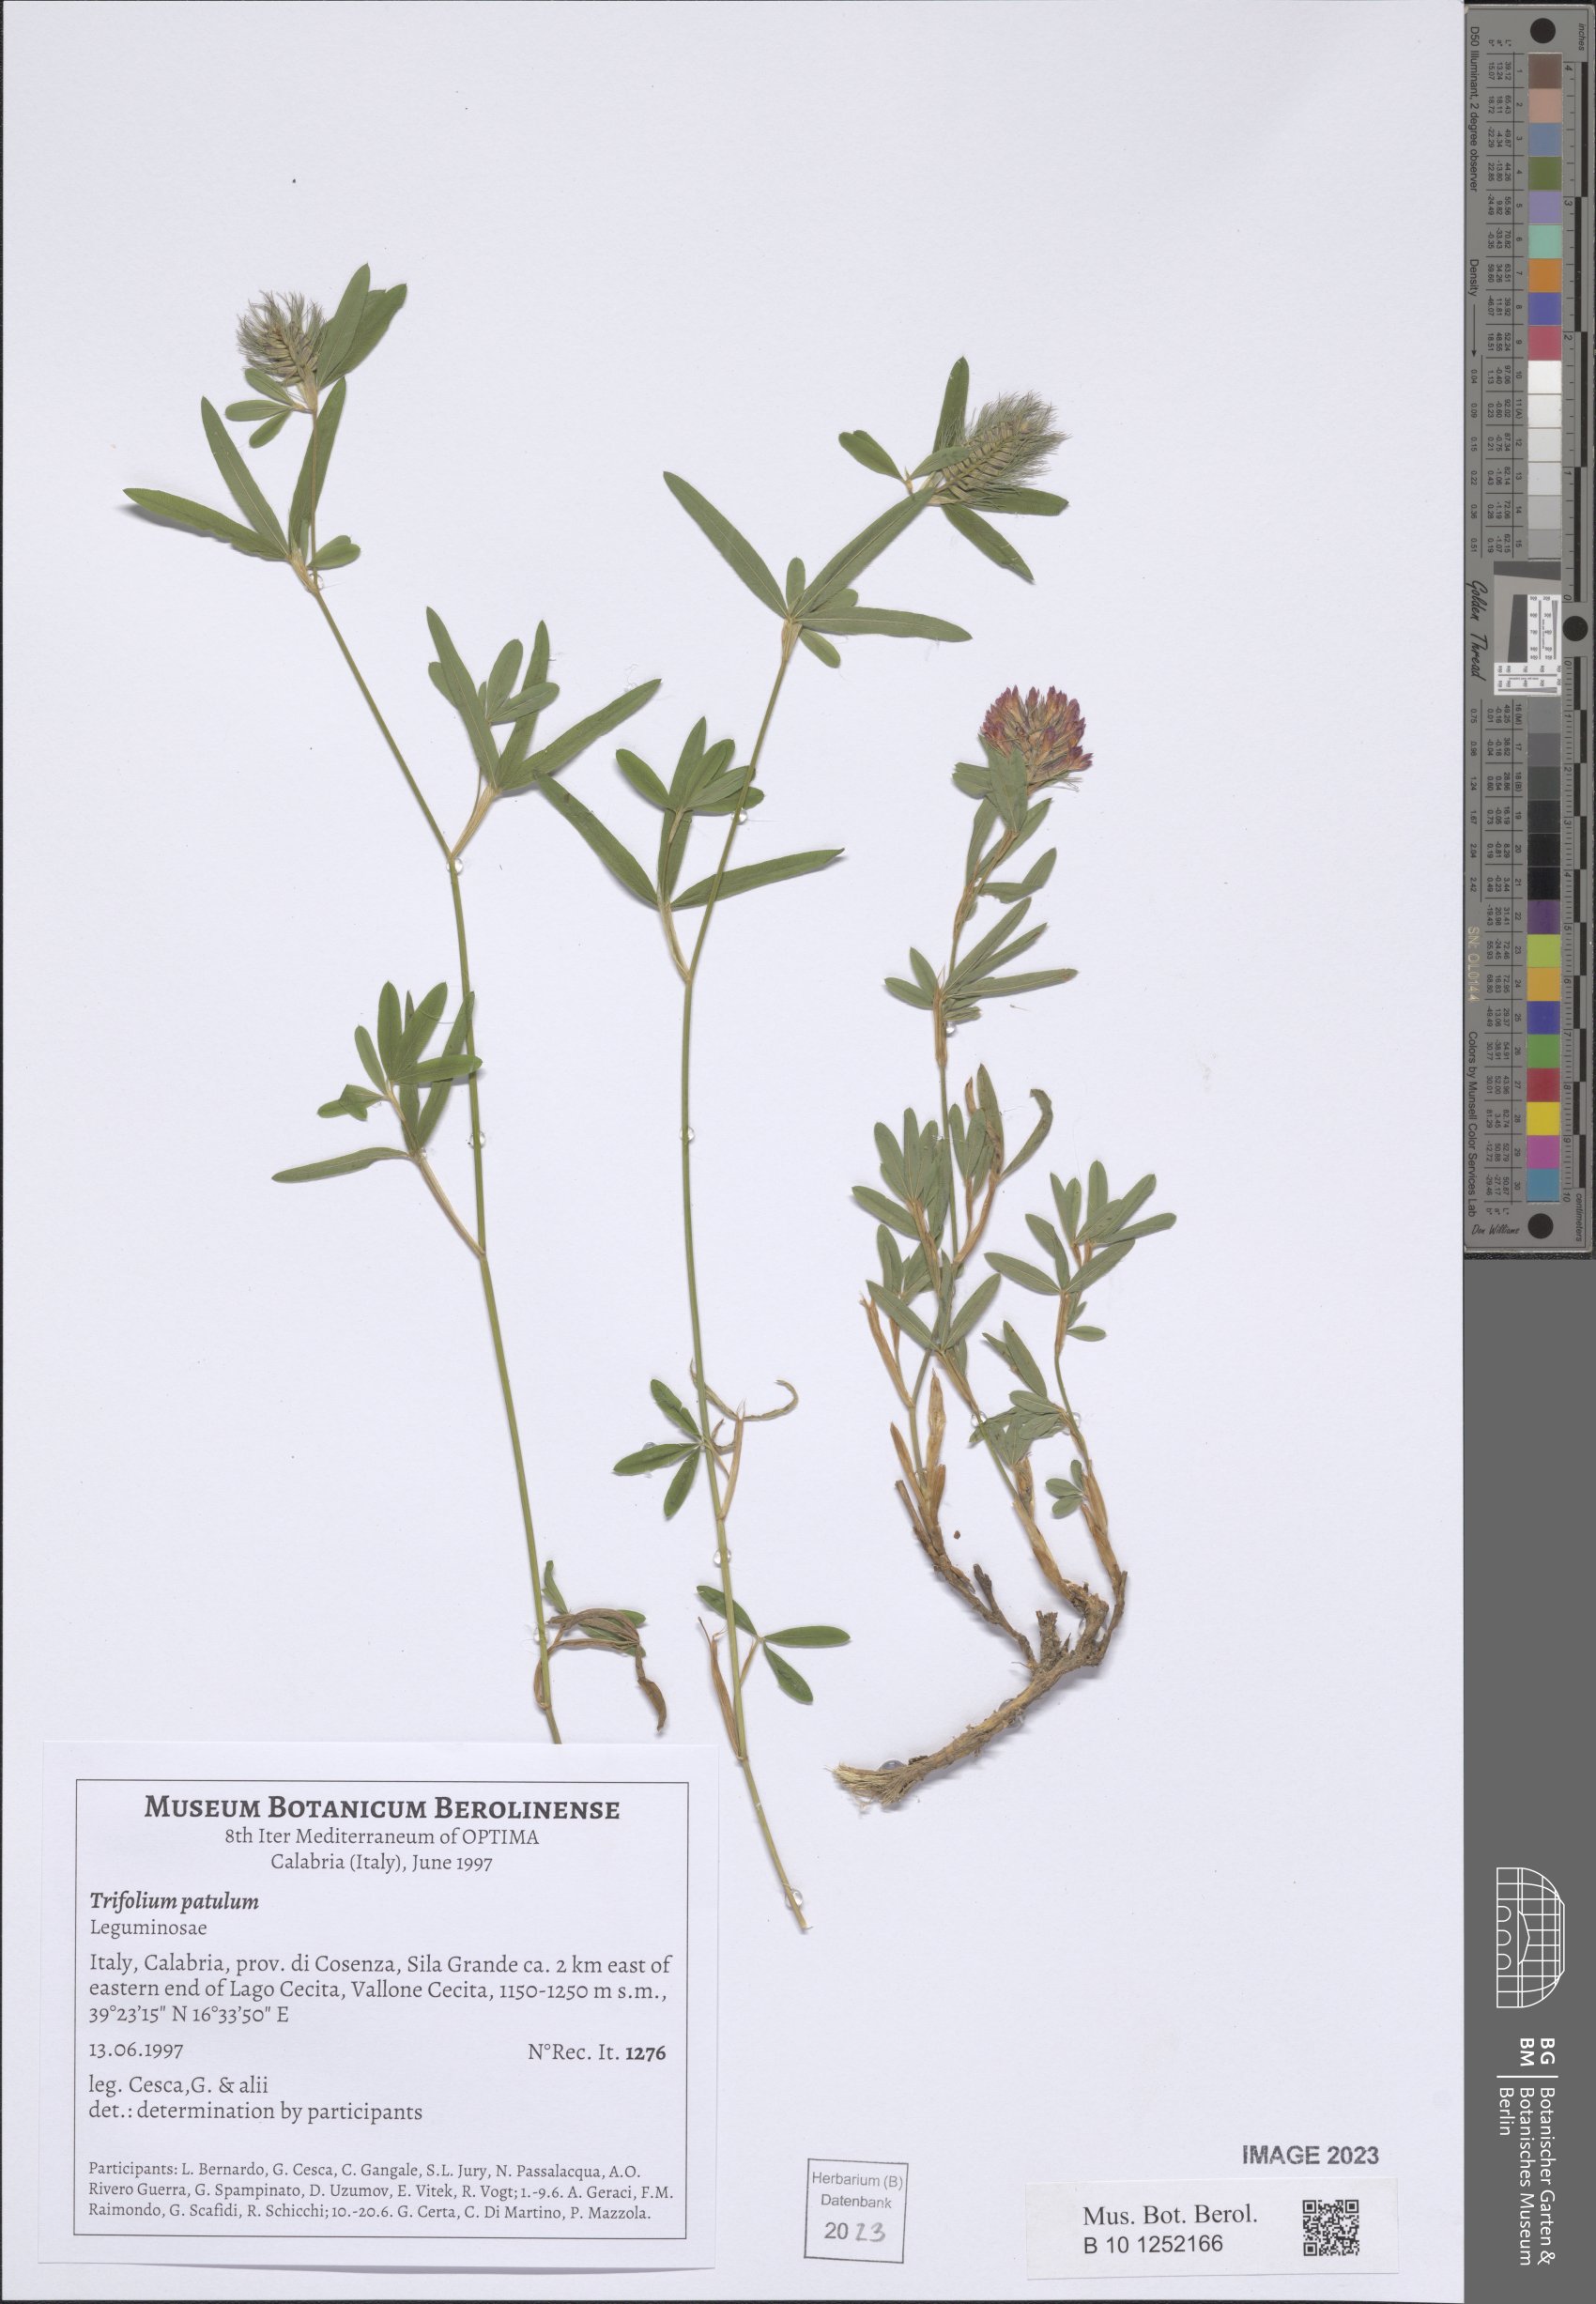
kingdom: Plantae
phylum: Tracheophyta
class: Magnoliopsida
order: Fabales
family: Fabaceae
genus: Trifolium
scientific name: Trifolium patulum
